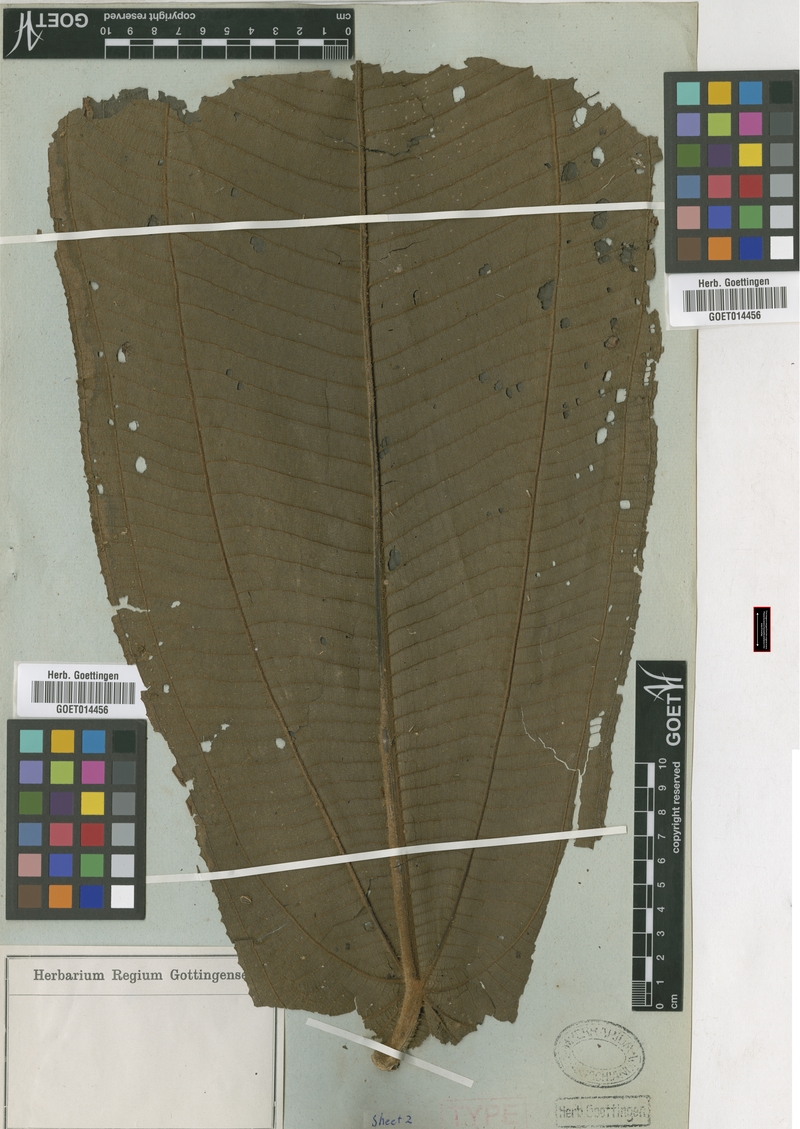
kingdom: Plantae
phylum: Tracheophyta
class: Magnoliopsida
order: Myrtales
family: Melastomataceae
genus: Miconia
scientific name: Miconia macrotis
